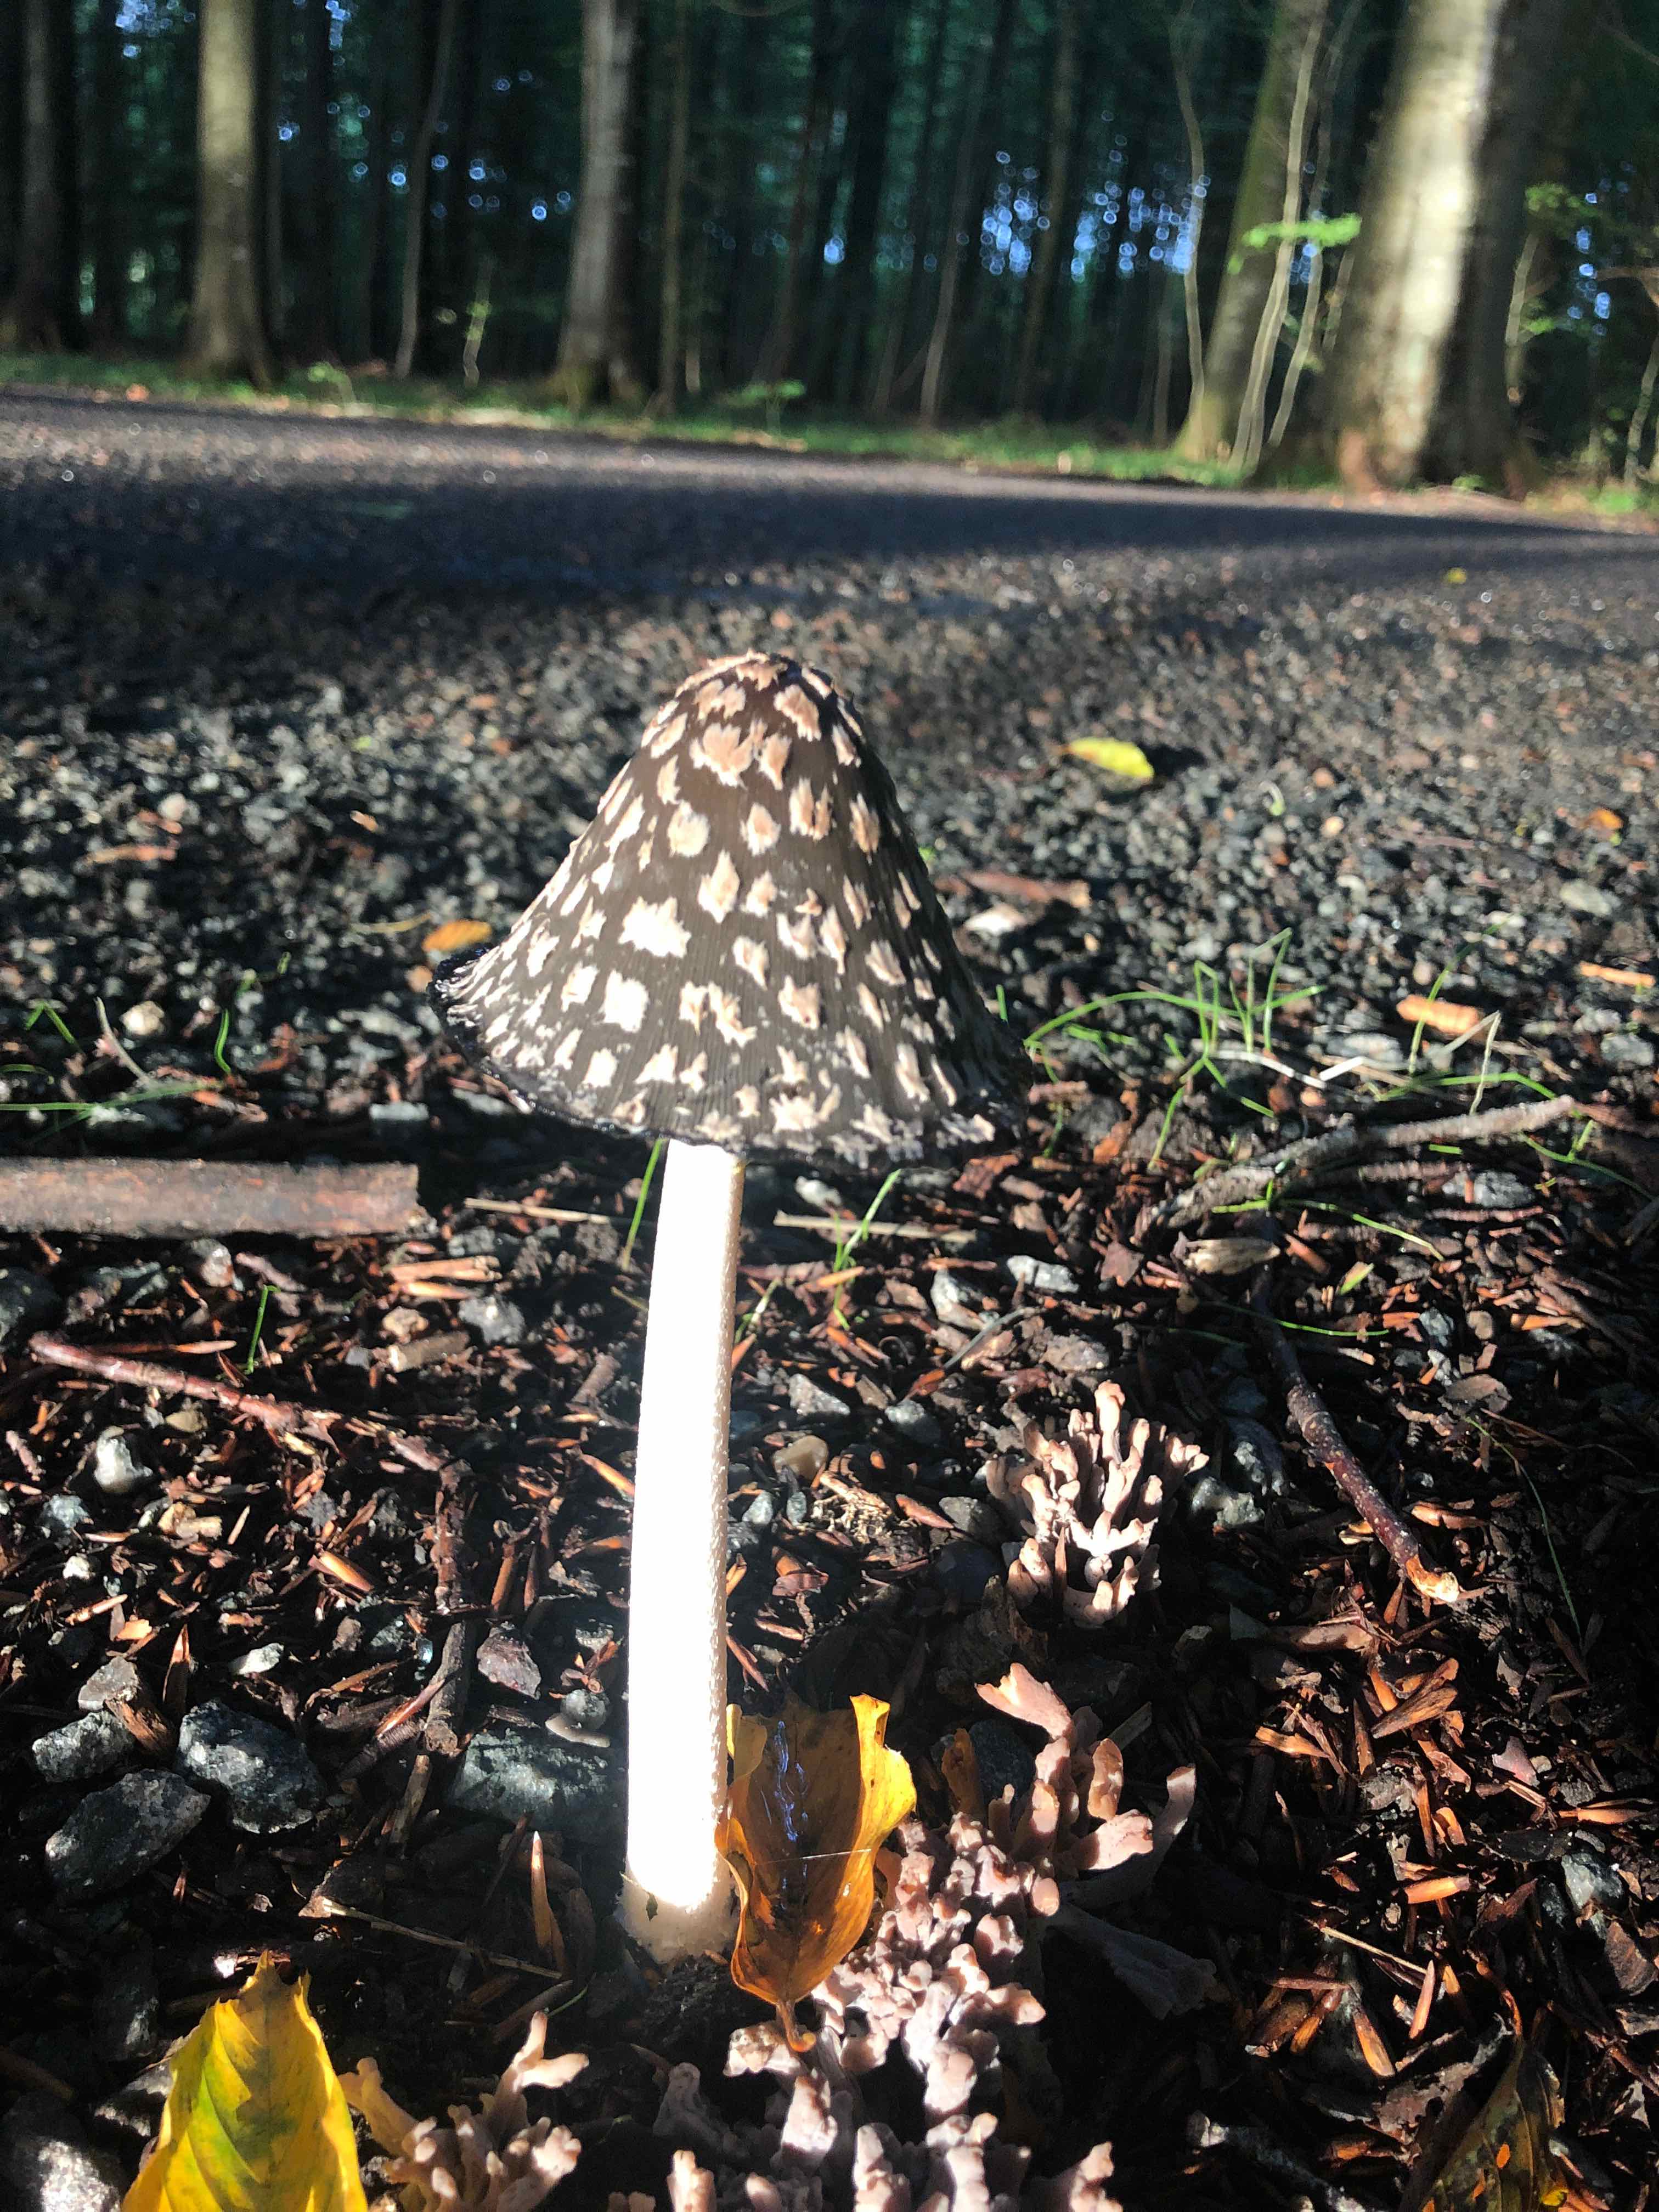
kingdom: Fungi
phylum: Basidiomycota
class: Agaricomycetes
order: Agaricales
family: Psathyrellaceae
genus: Coprinopsis
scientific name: Coprinopsis picacea
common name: skade-blækhat
